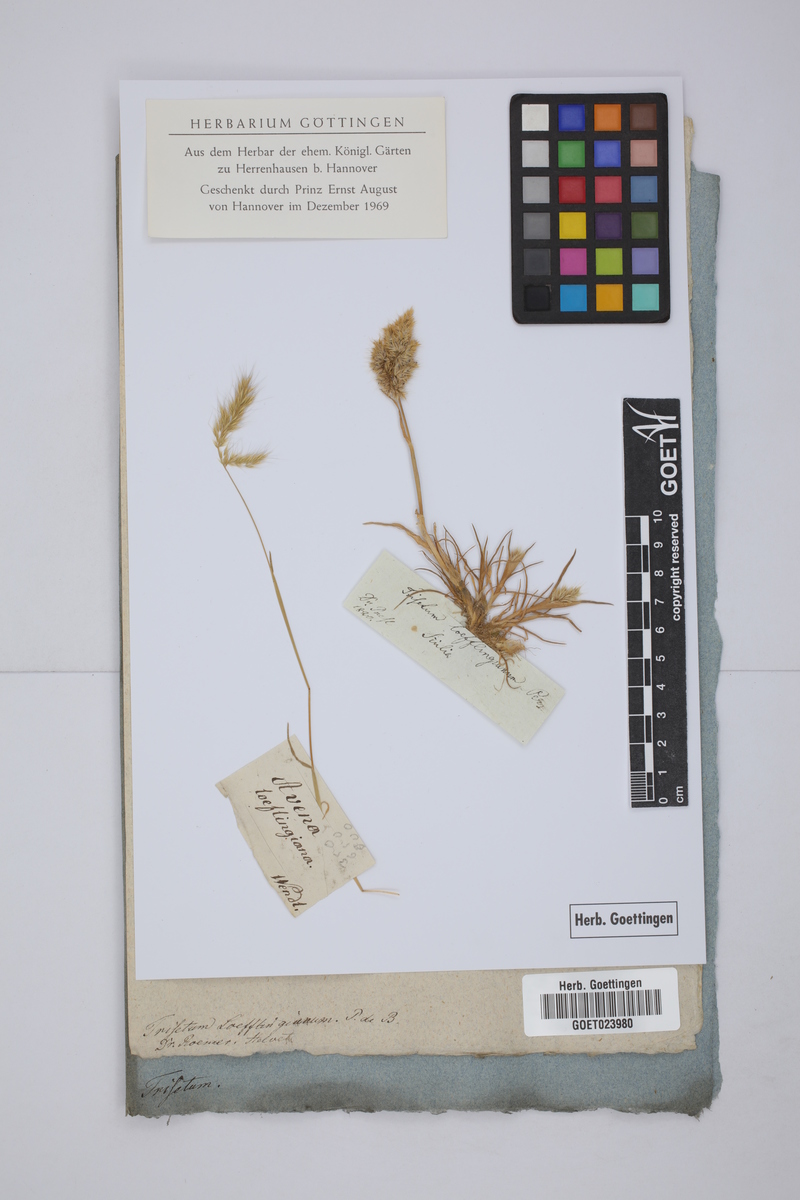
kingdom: Plantae
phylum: Tracheophyta
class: Liliopsida
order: Poales
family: Poaceae
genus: Trisetaria
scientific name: Trisetaria loeflingiana
